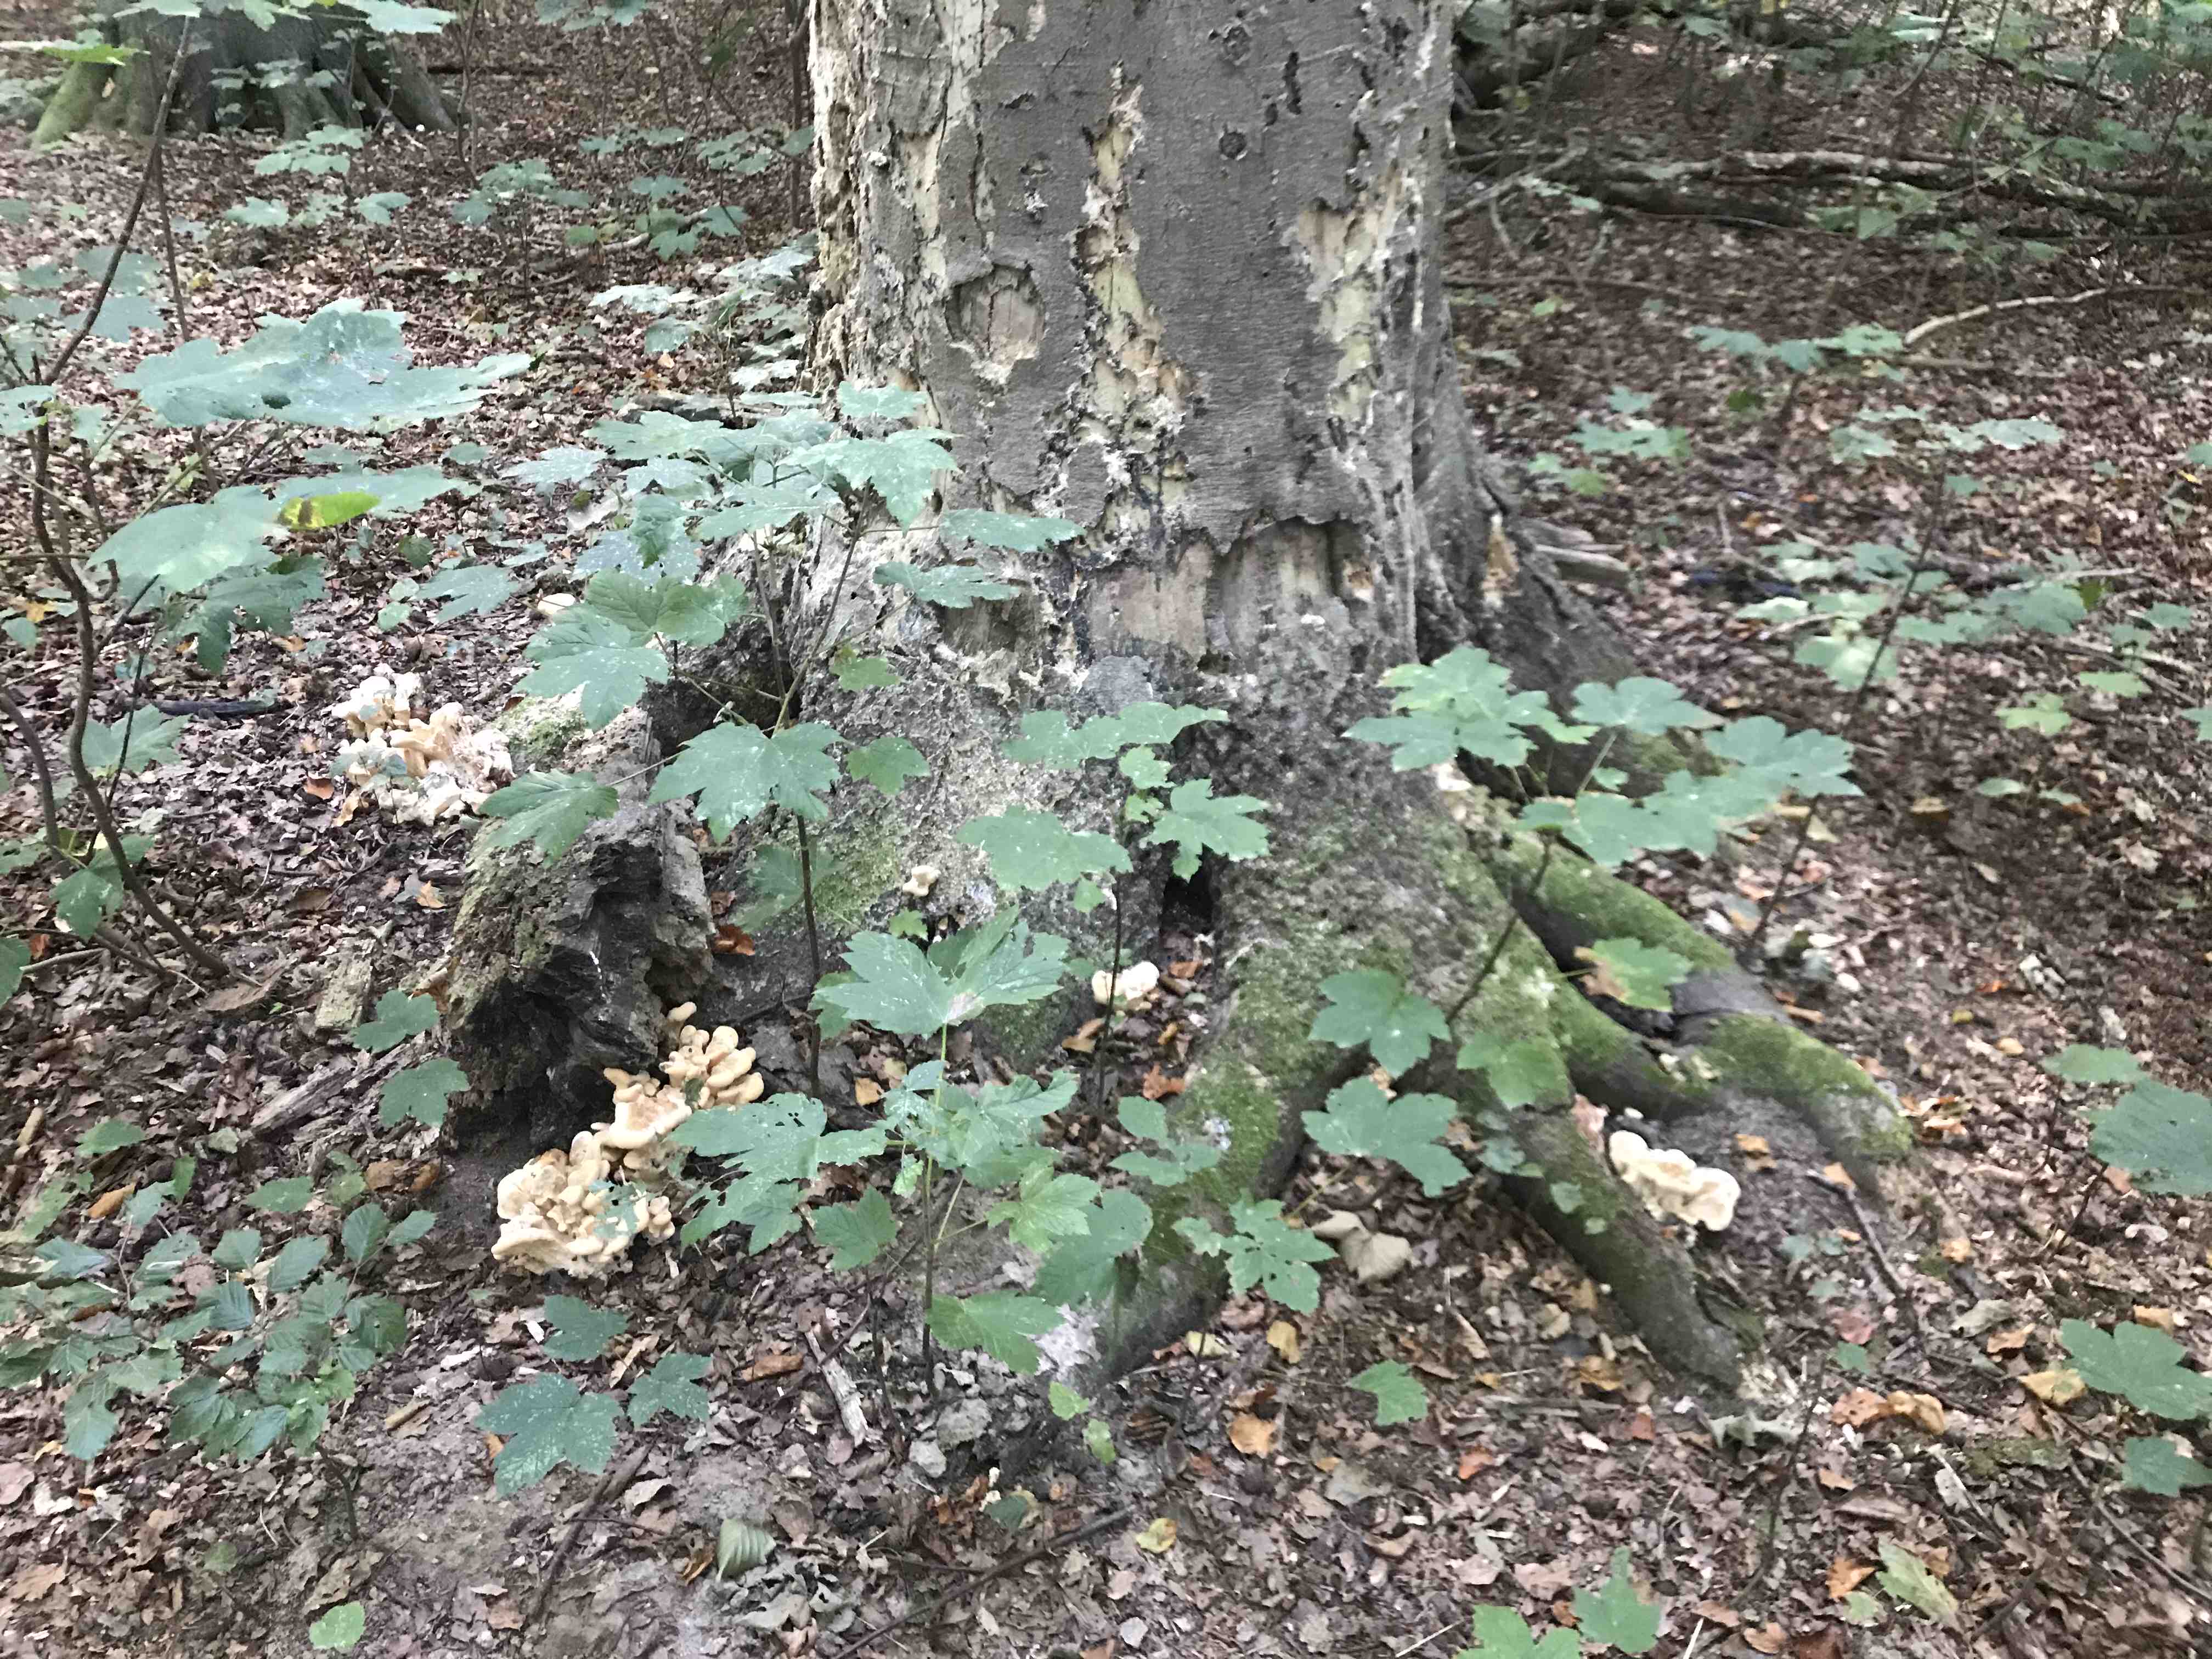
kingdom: Fungi
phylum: Basidiomycota
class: Agaricomycetes
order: Polyporales
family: Meripilaceae
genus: Meripilus
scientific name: Meripilus giganteus
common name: kæmpeporesvamp
